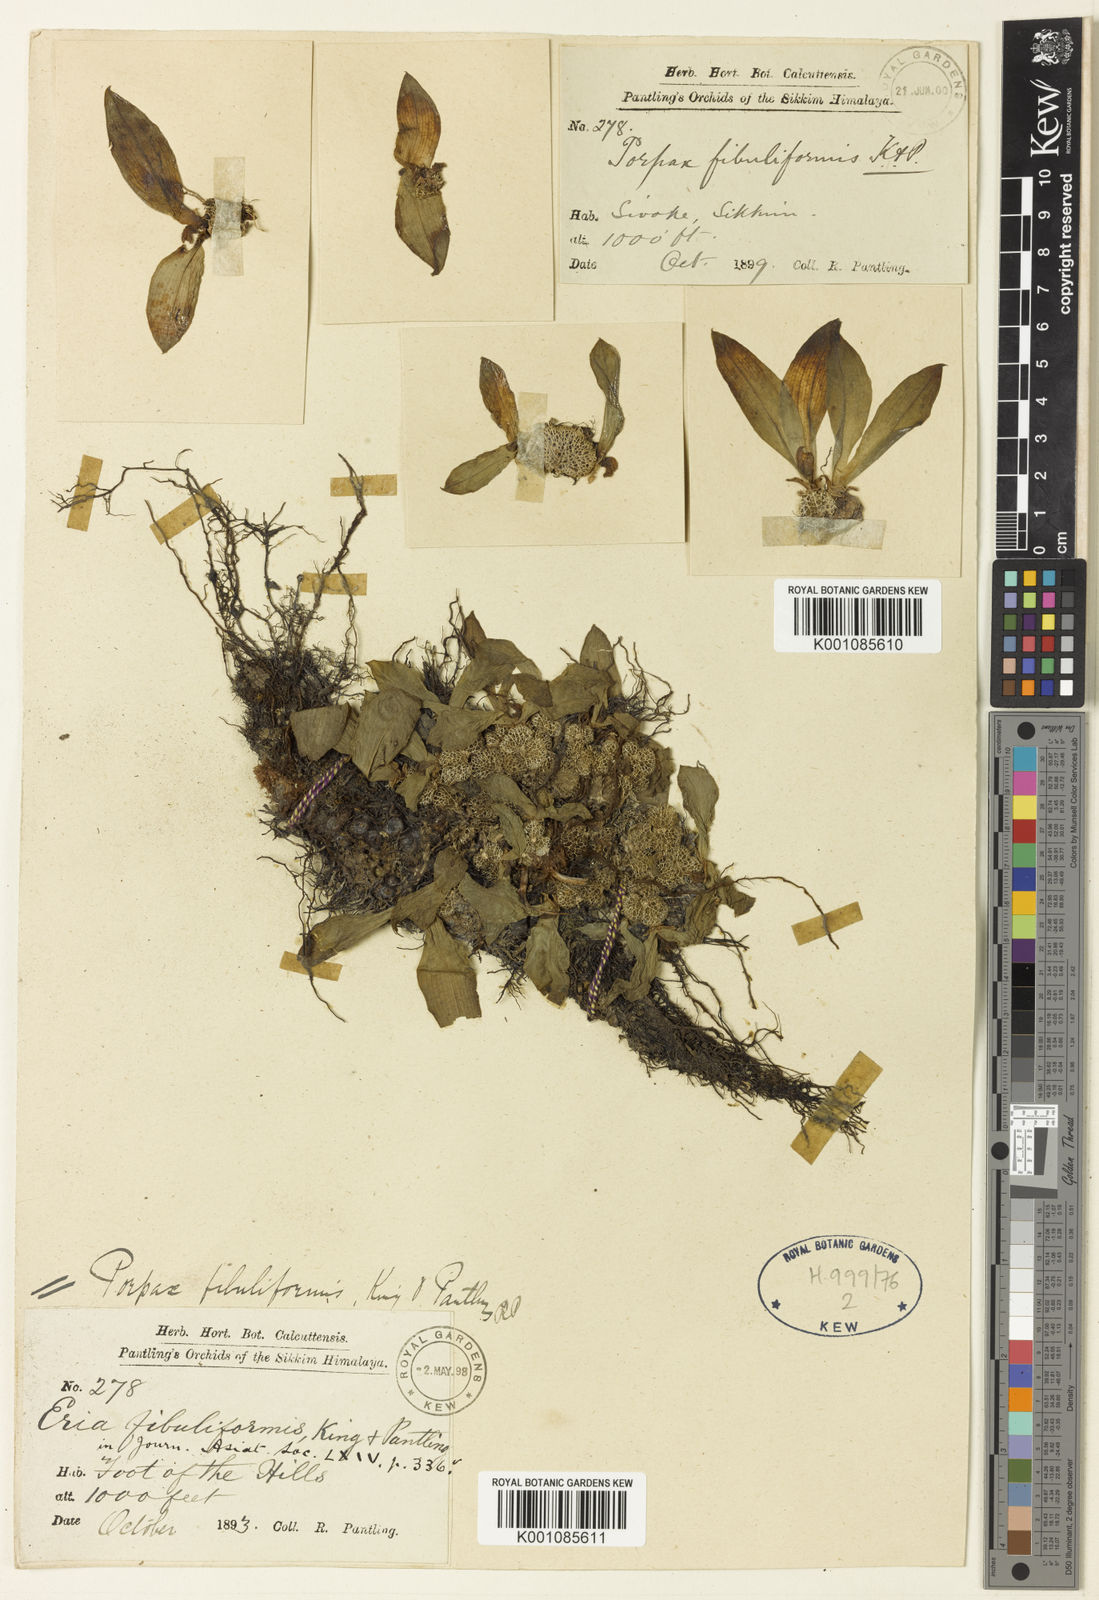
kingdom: Plantae
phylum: Tracheophyta
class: Liliopsida
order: Asparagales
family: Orchidaceae
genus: Porpax
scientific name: Porpax fibuliformis
